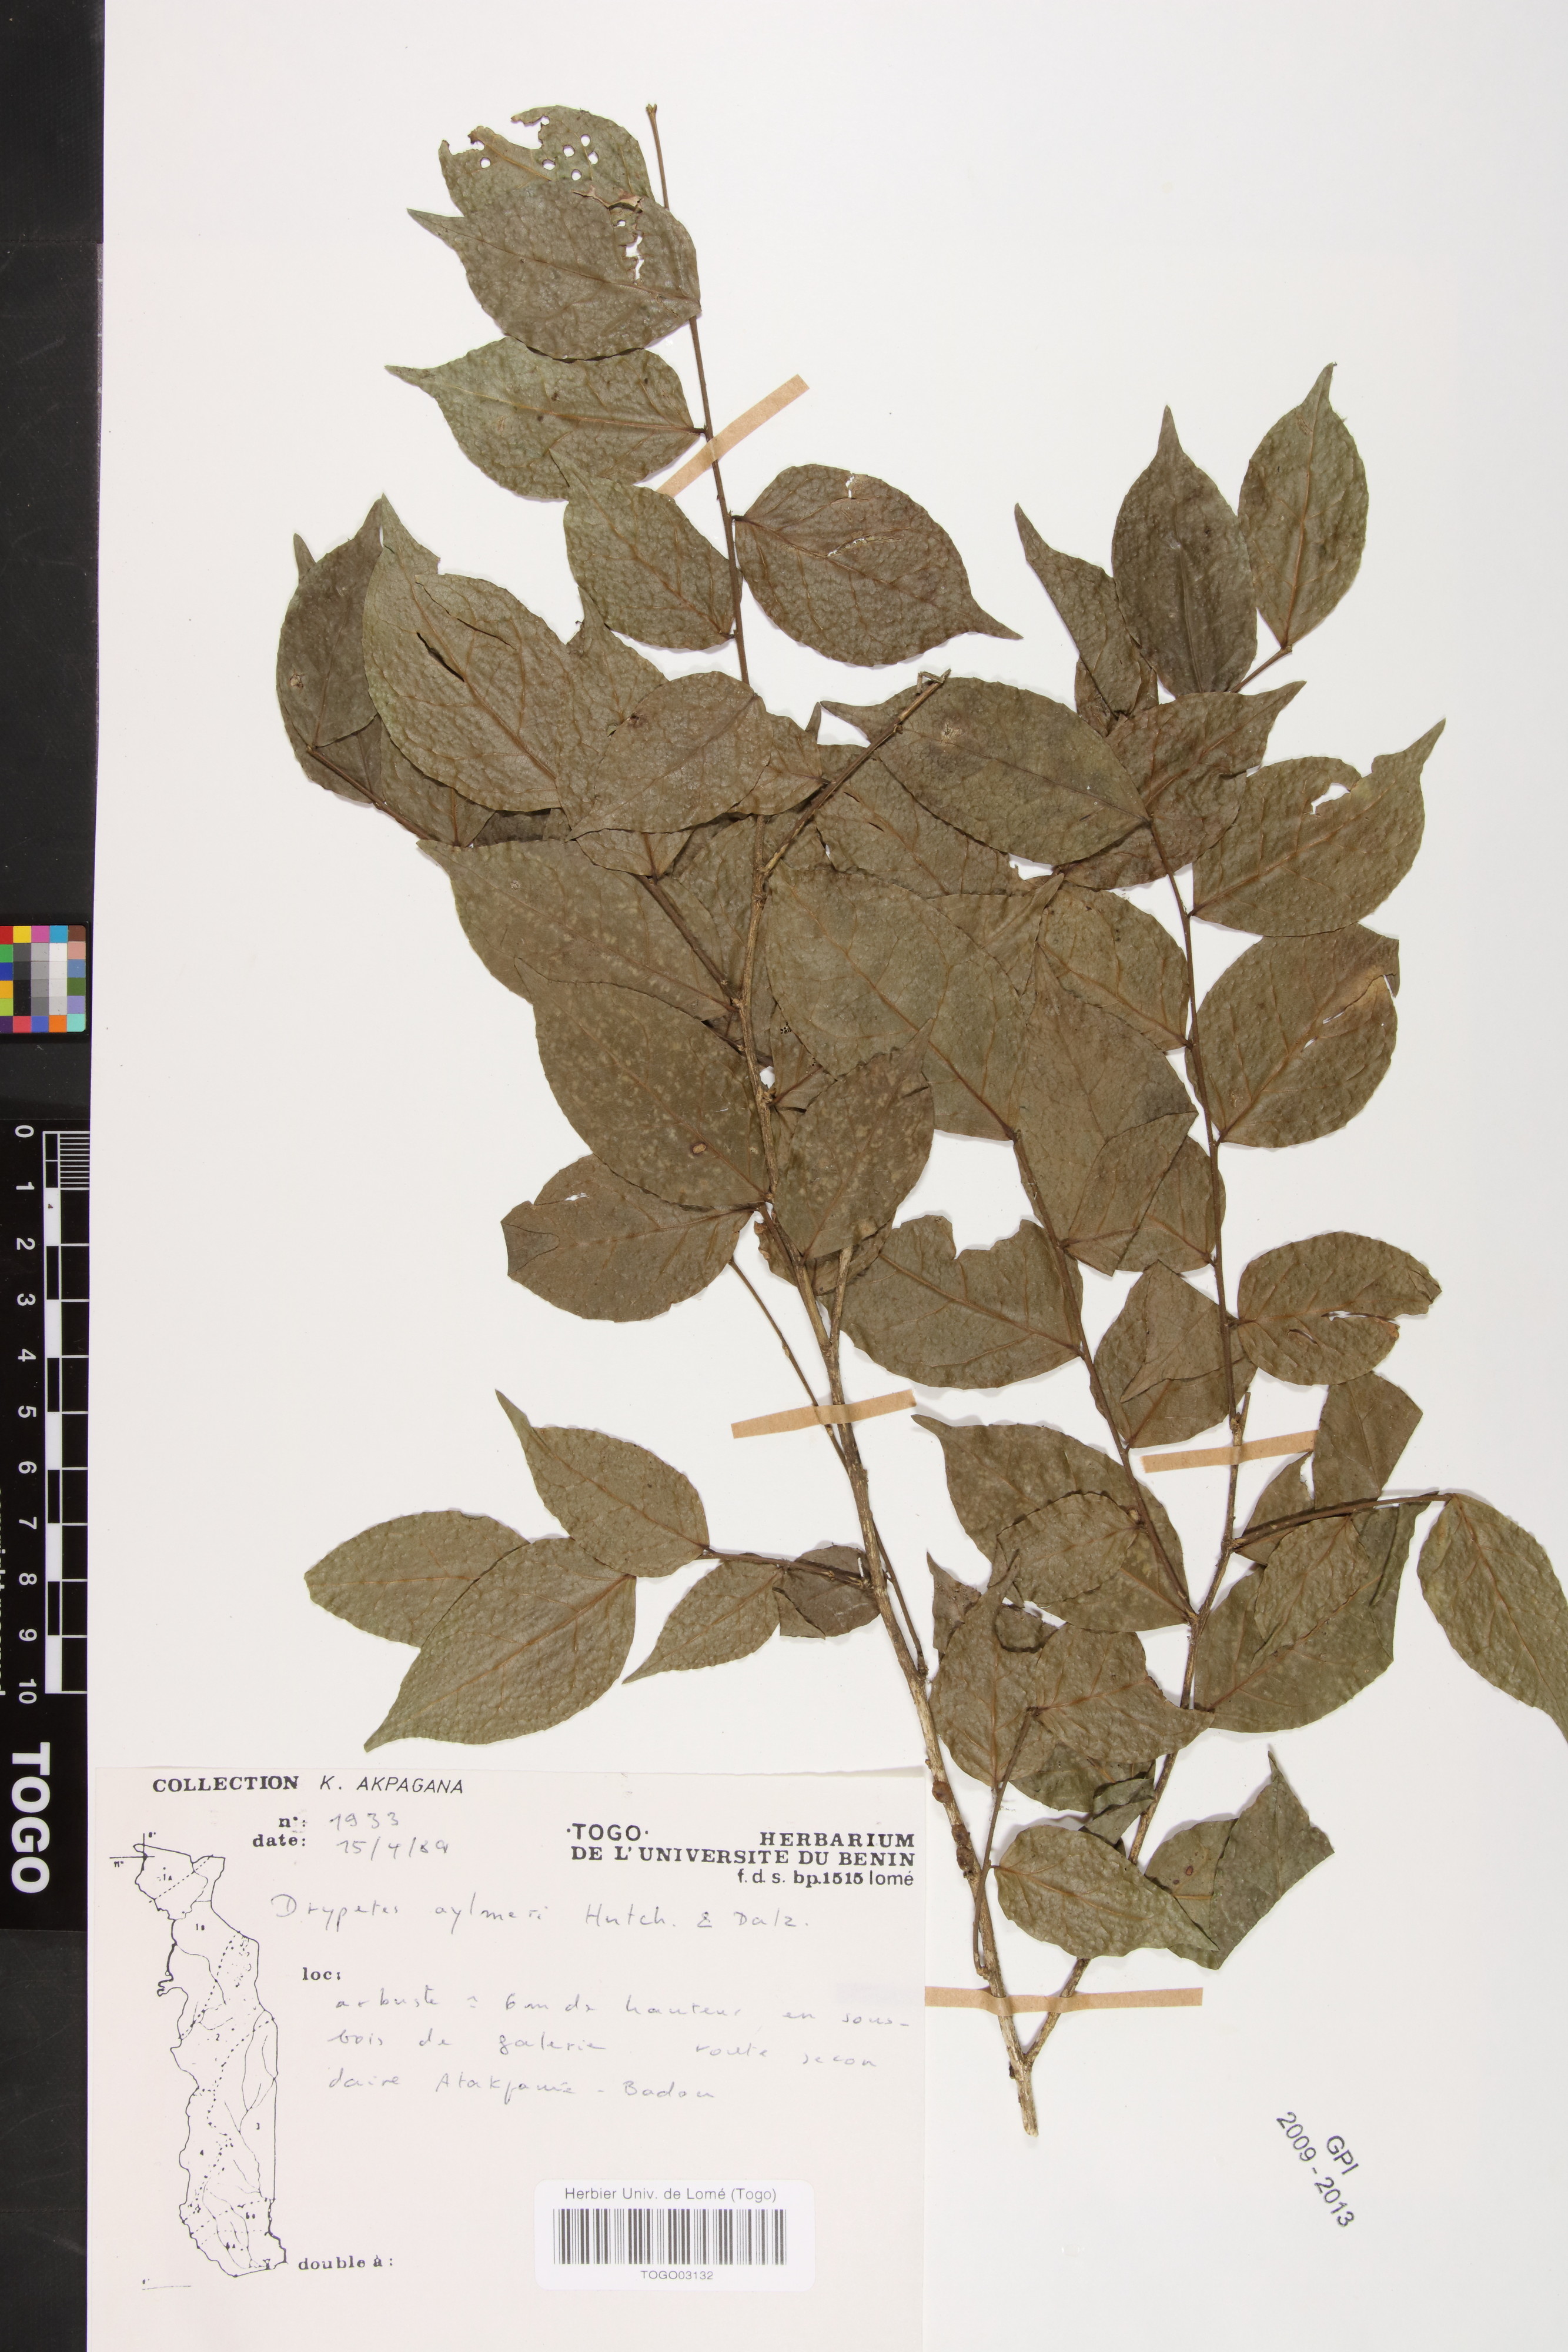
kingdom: Plantae
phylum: Tracheophyta
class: Magnoliopsida
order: Malpighiales
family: Putranjivaceae
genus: Drypetes
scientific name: Drypetes aylmeri
